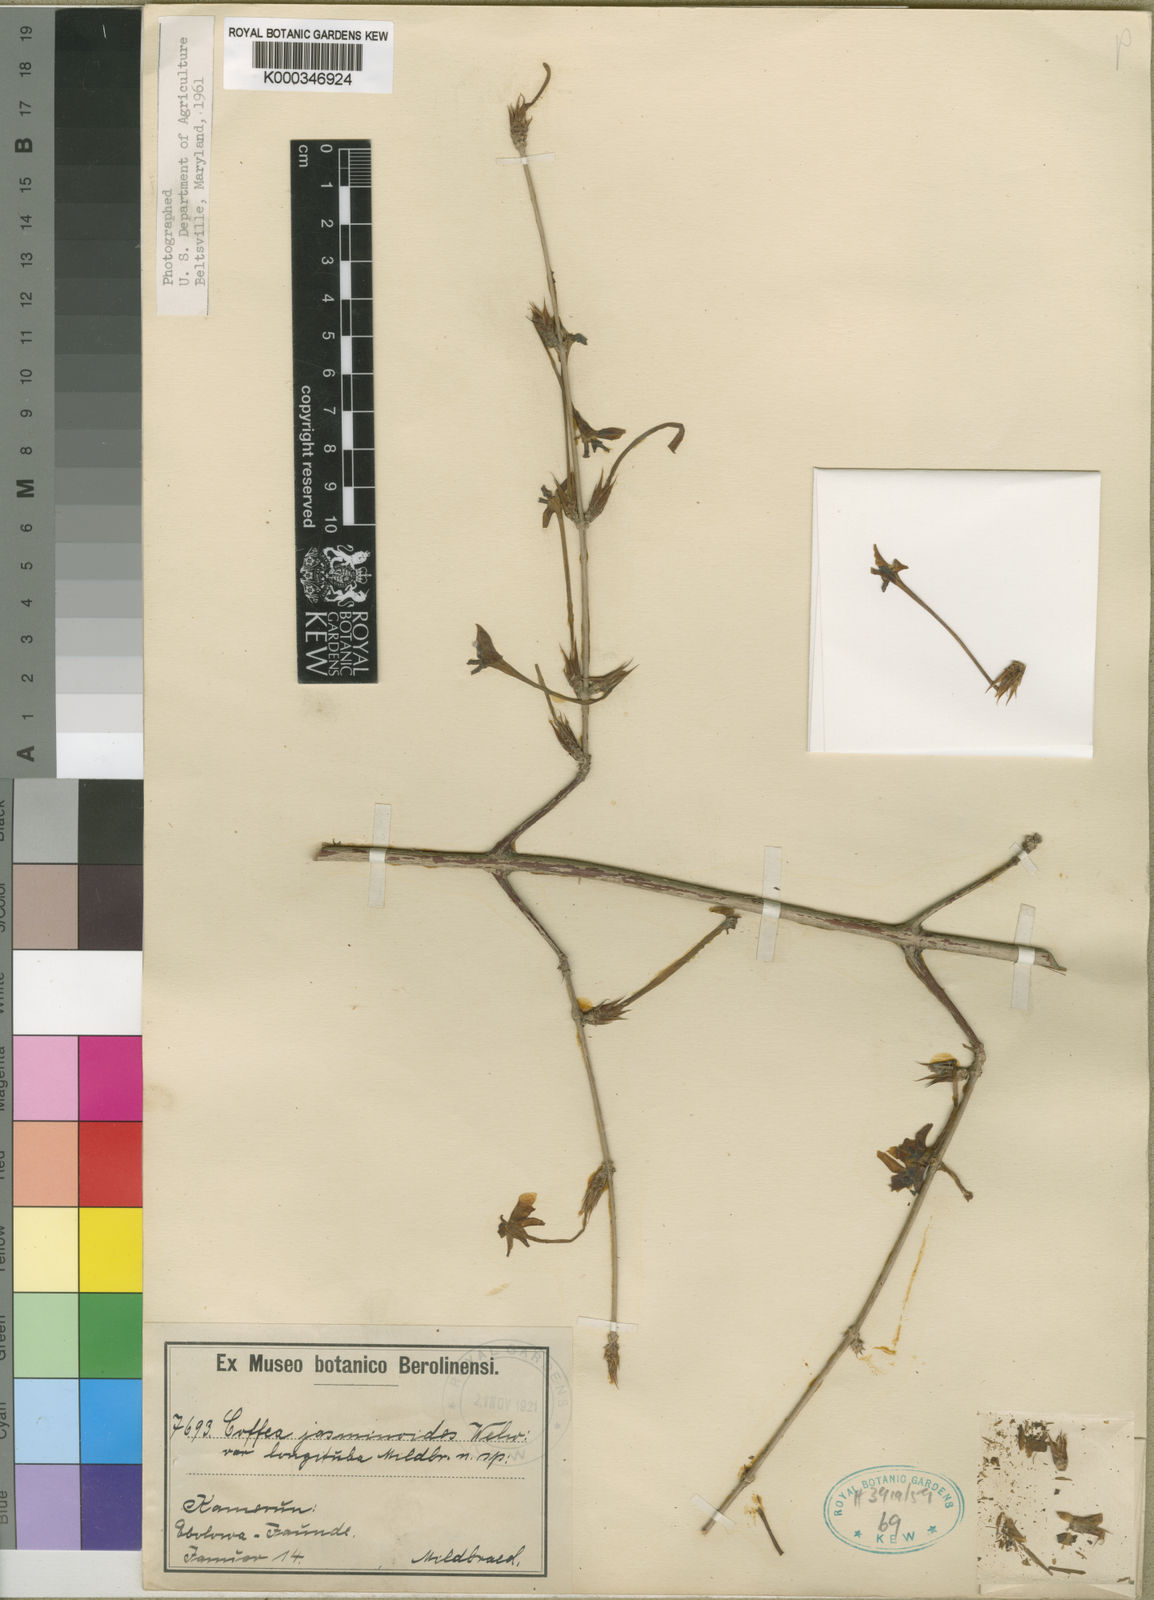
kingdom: Plantae
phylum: Tracheophyta
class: Magnoliopsida
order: Gentianales
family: Rubiaceae
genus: Argocoffeopsis
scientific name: Argocoffeopsis eketensis
